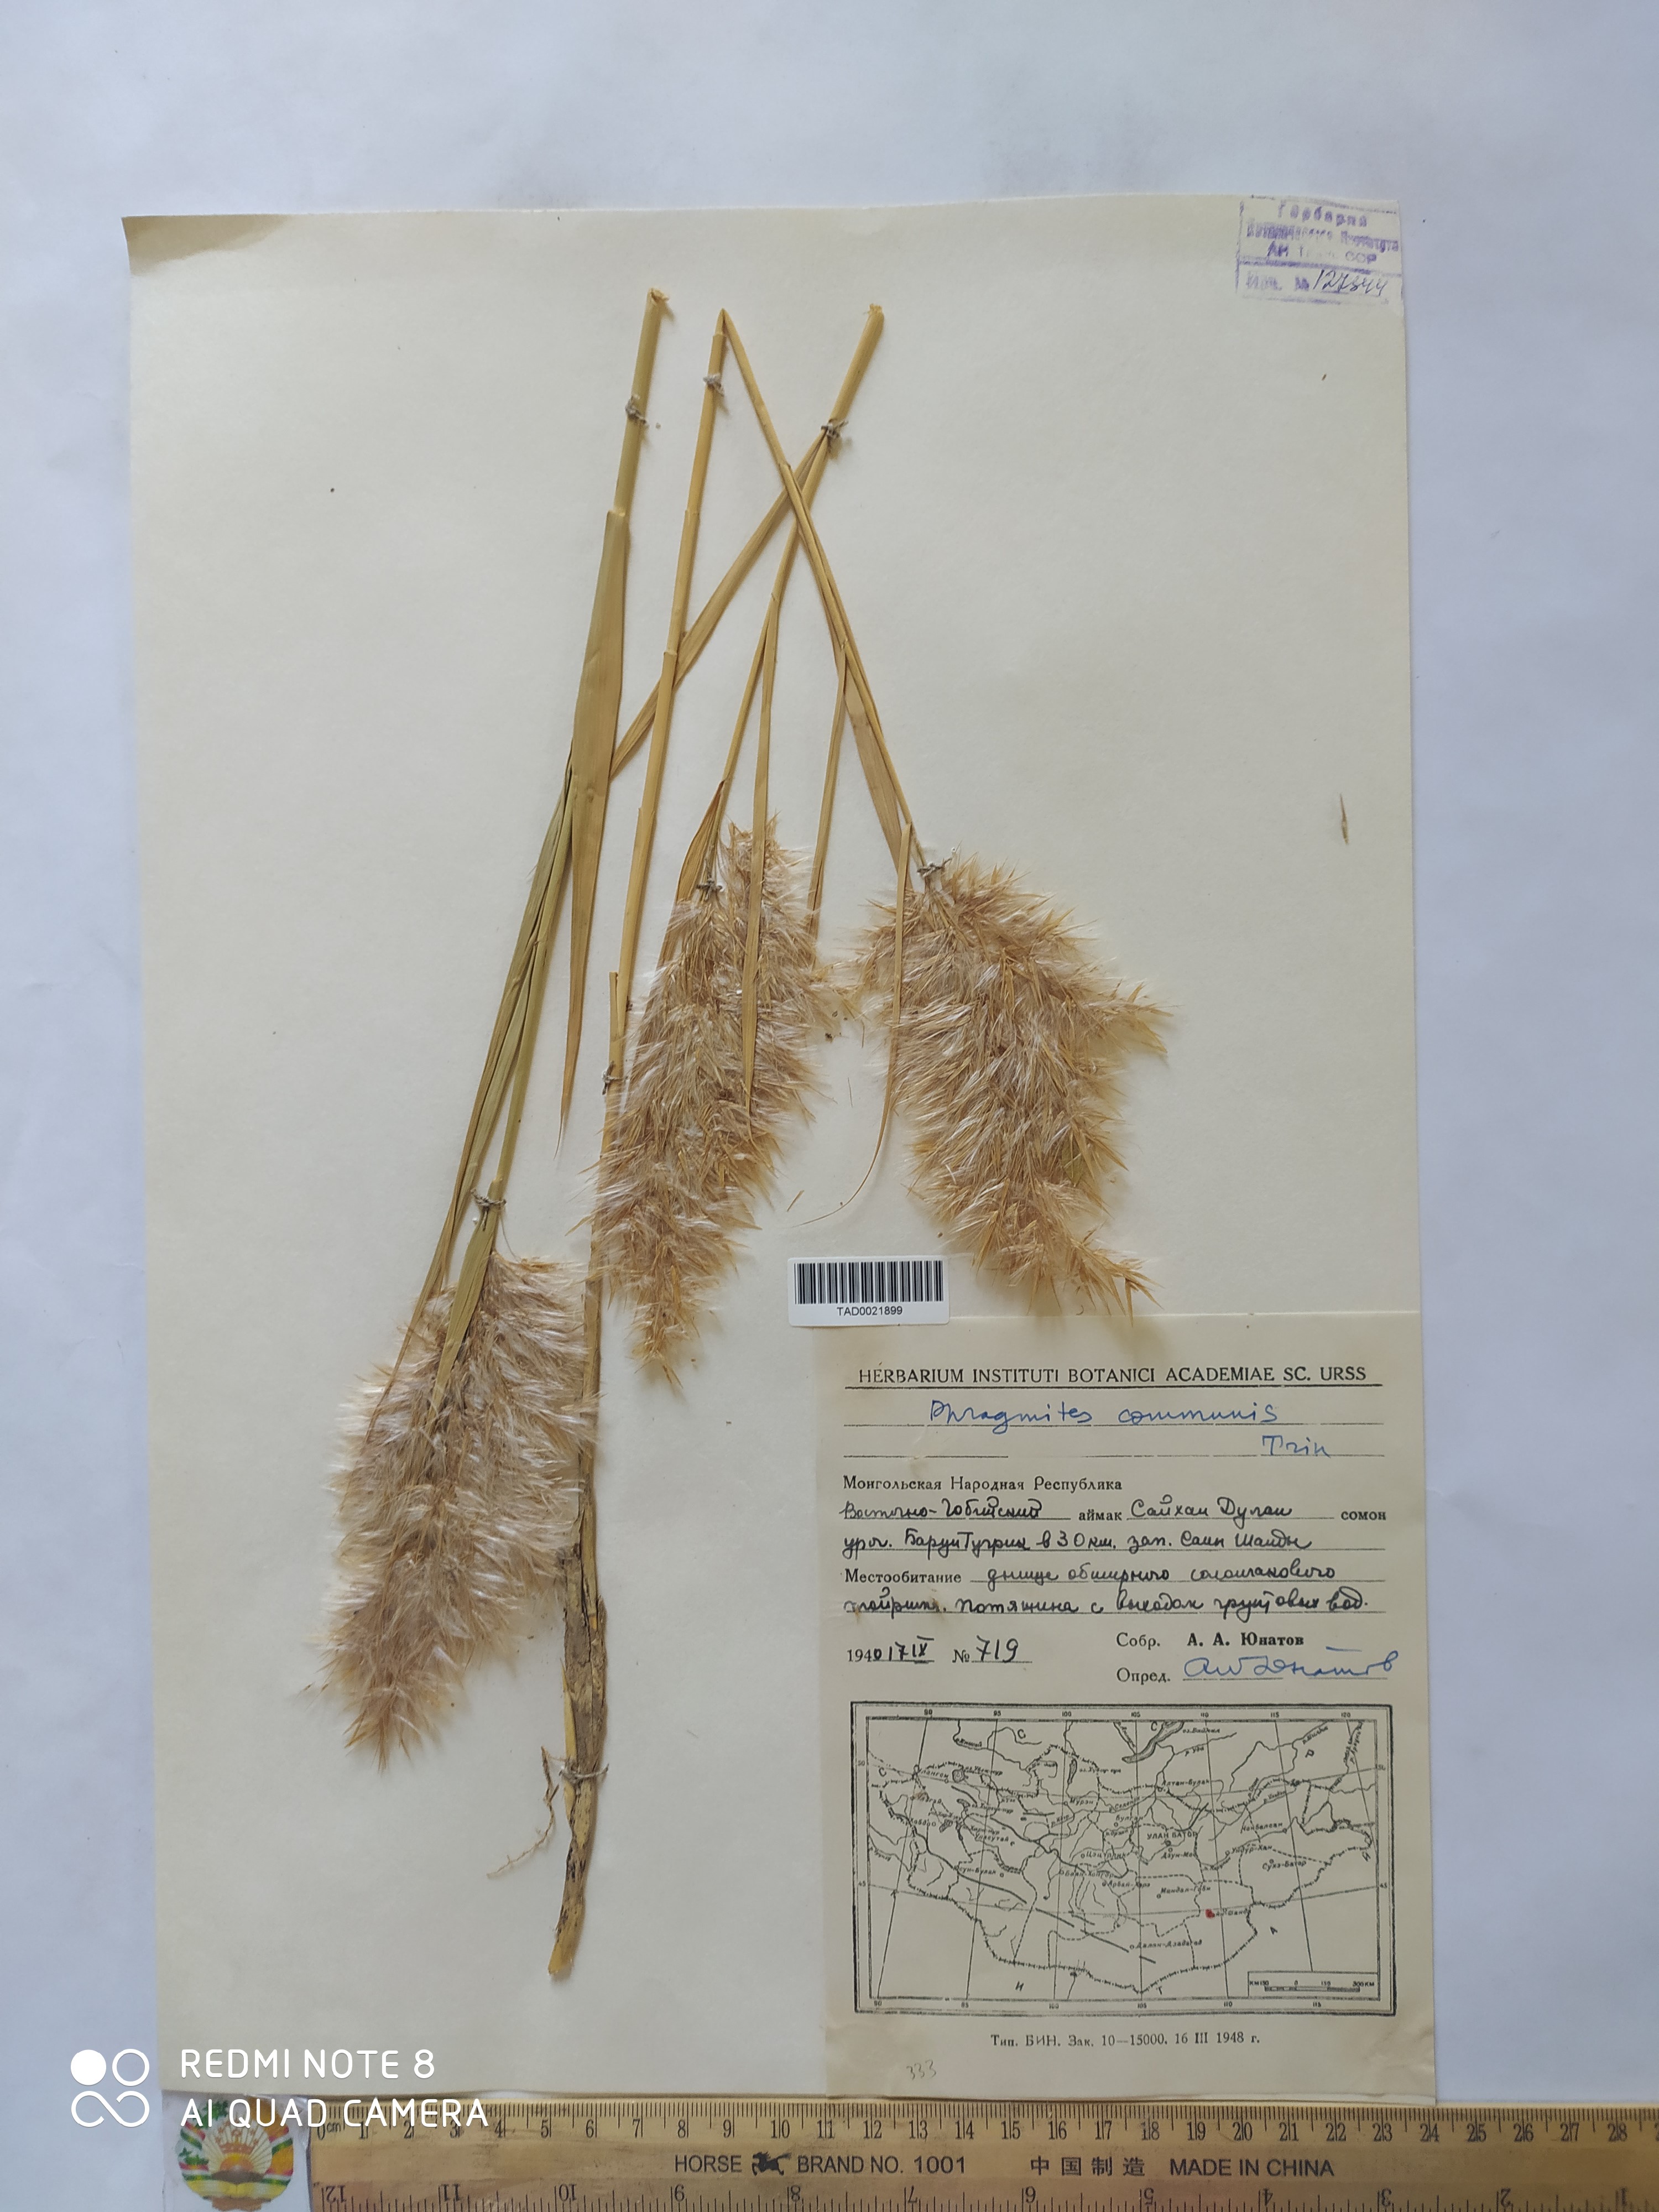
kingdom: Plantae
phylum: Tracheophyta
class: Liliopsida
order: Poales
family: Poaceae
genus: Phragmites
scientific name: Phragmites australis
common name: Common reed
